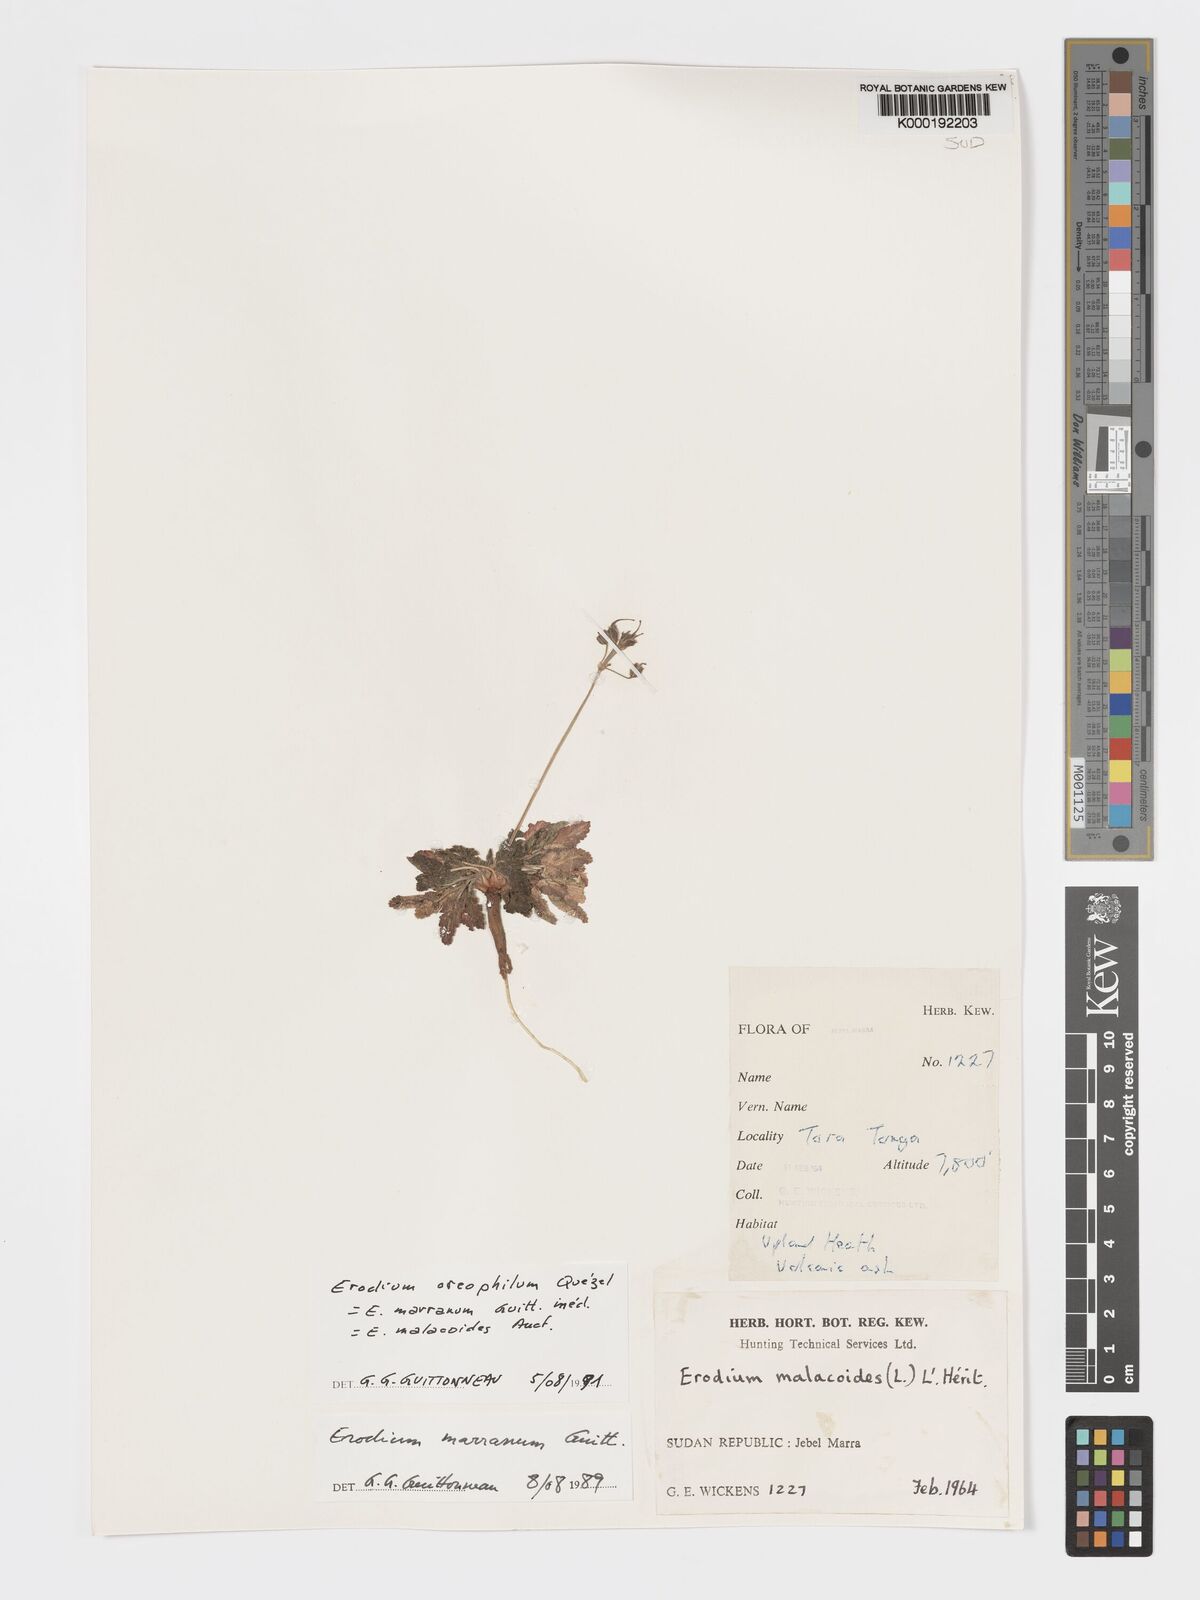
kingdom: Plantae
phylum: Tracheophyta
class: Magnoliopsida
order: Geraniales
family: Geraniaceae
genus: Erodium
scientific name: Erodium neuradifolium
